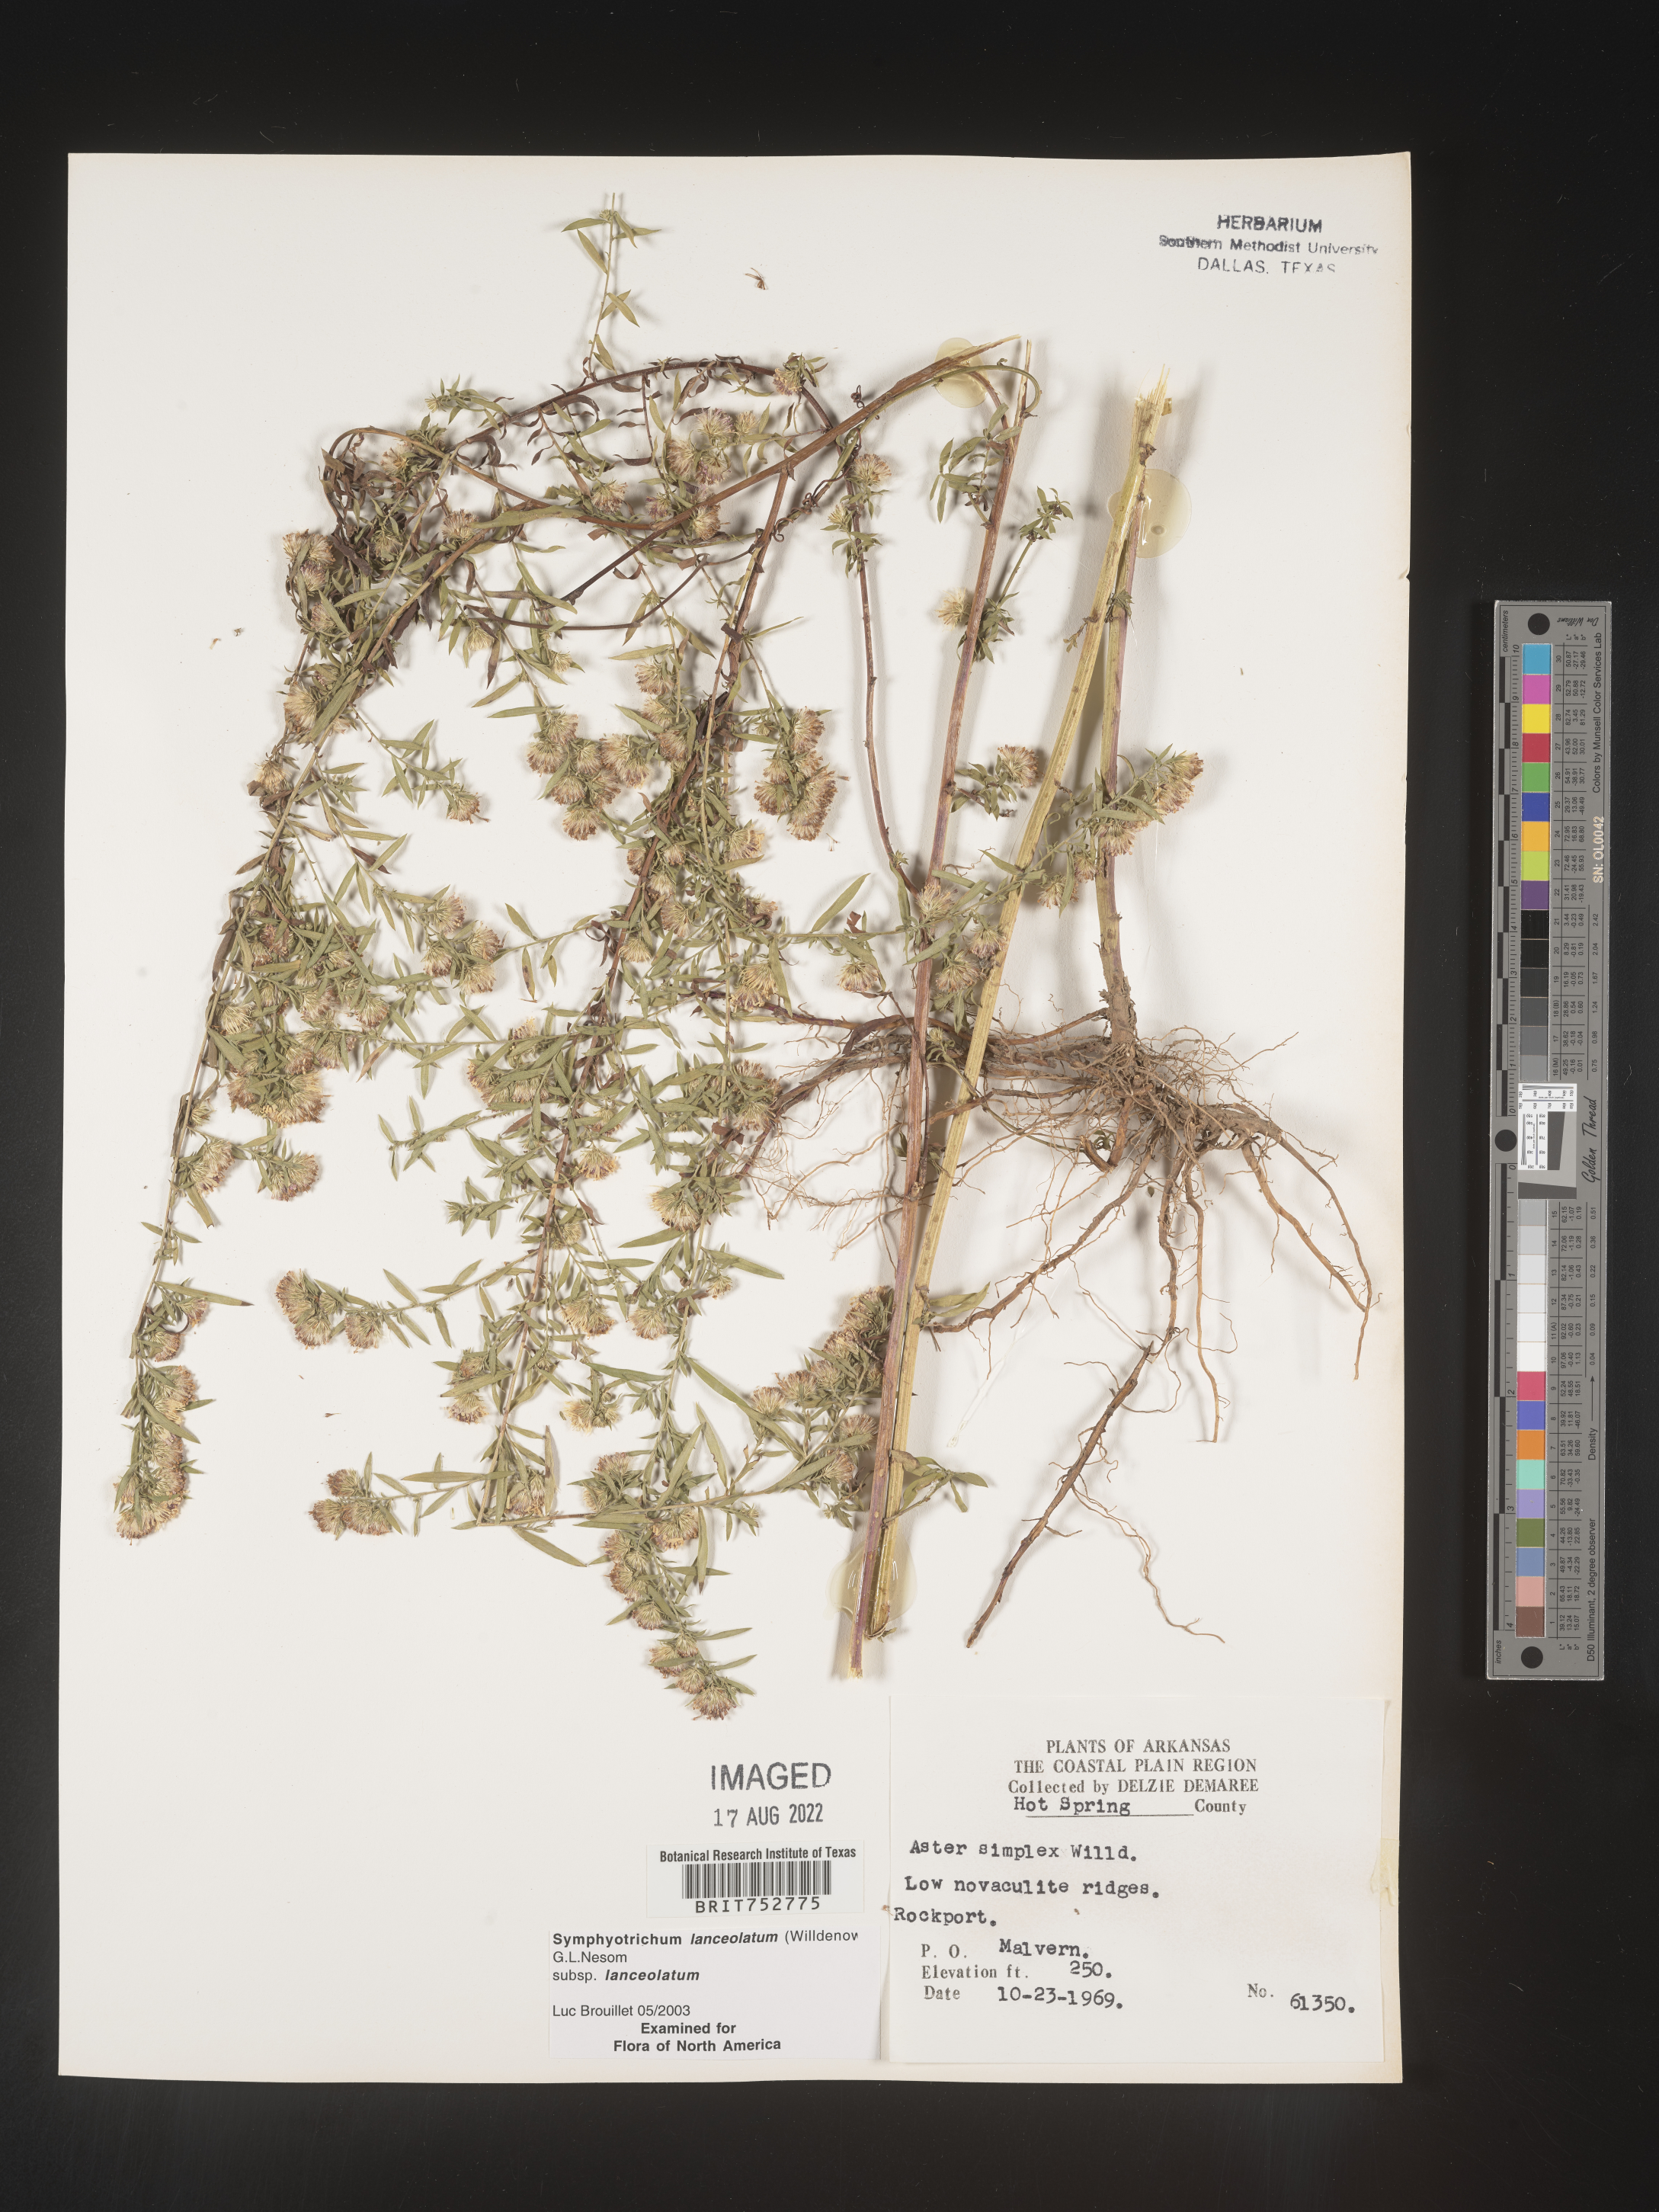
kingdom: Plantae
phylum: Tracheophyta
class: Magnoliopsida
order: Asterales
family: Asteraceae
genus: Symphyotrichum
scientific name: Symphyotrichum lanceolatum
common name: Panicled aster
